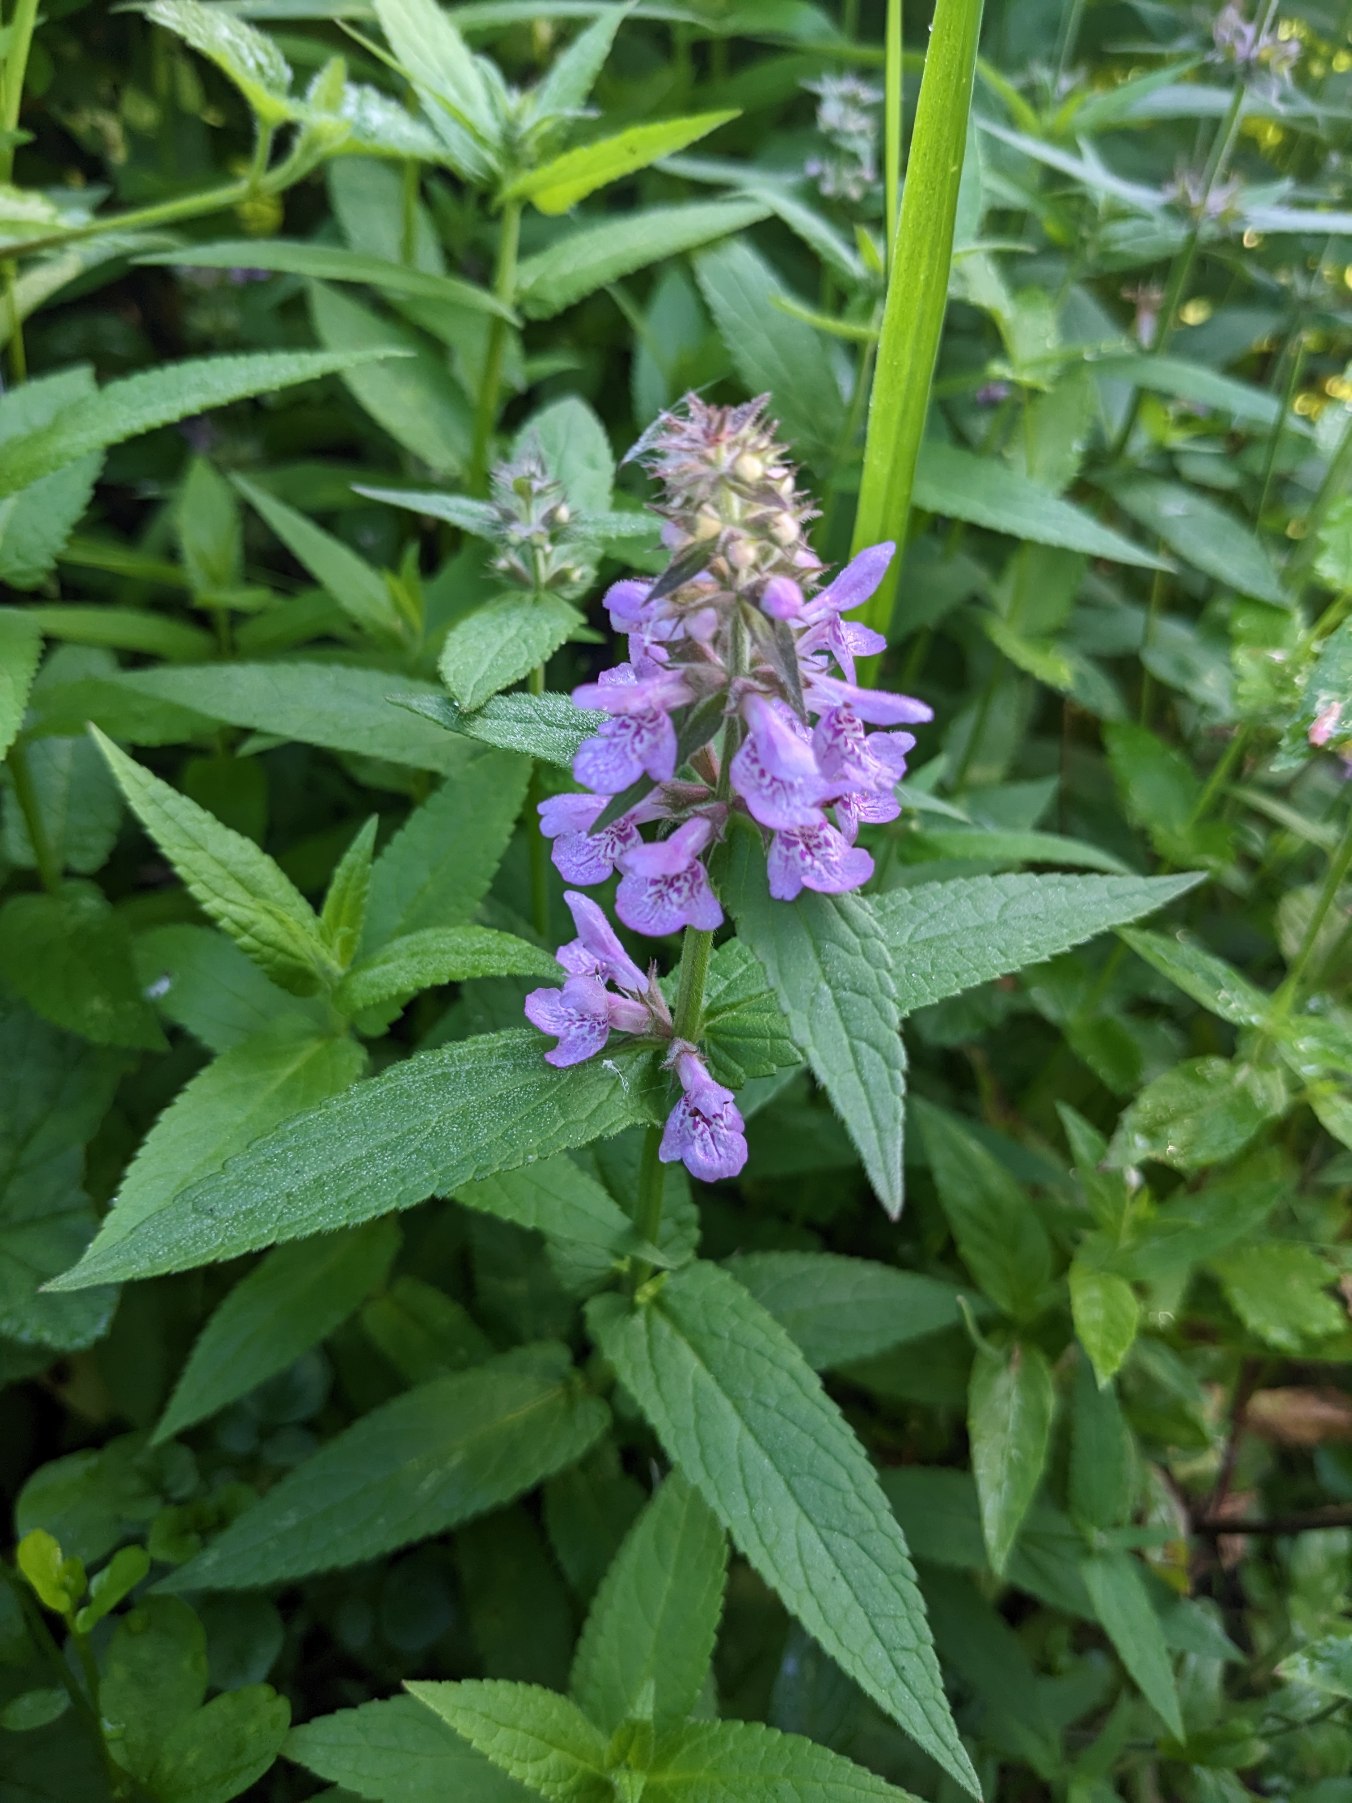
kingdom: Plantae
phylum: Tracheophyta
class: Magnoliopsida
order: Lamiales
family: Lamiaceae
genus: Stachys
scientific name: Stachys palustris
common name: Kær-galtetand
